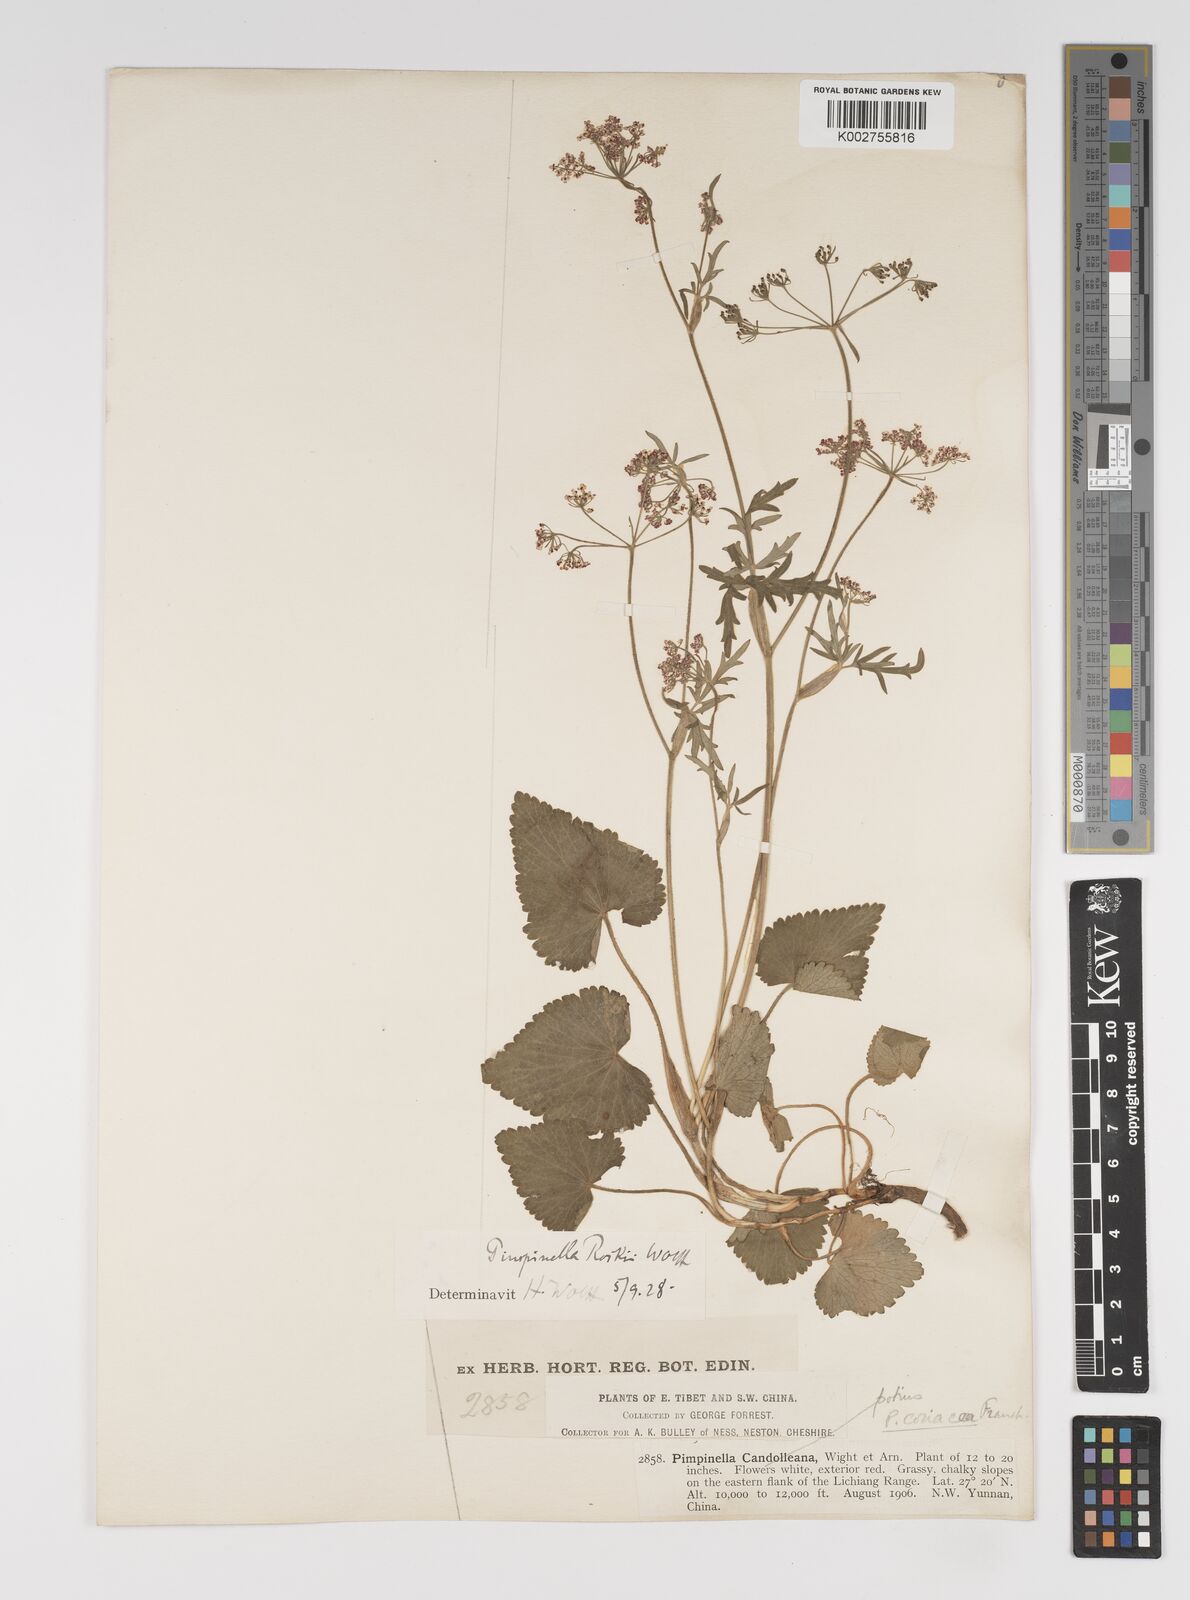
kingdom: Plantae
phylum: Tracheophyta
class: Magnoliopsida
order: Apiales
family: Apiaceae
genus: Pimpinella
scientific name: Pimpinella coriacea
